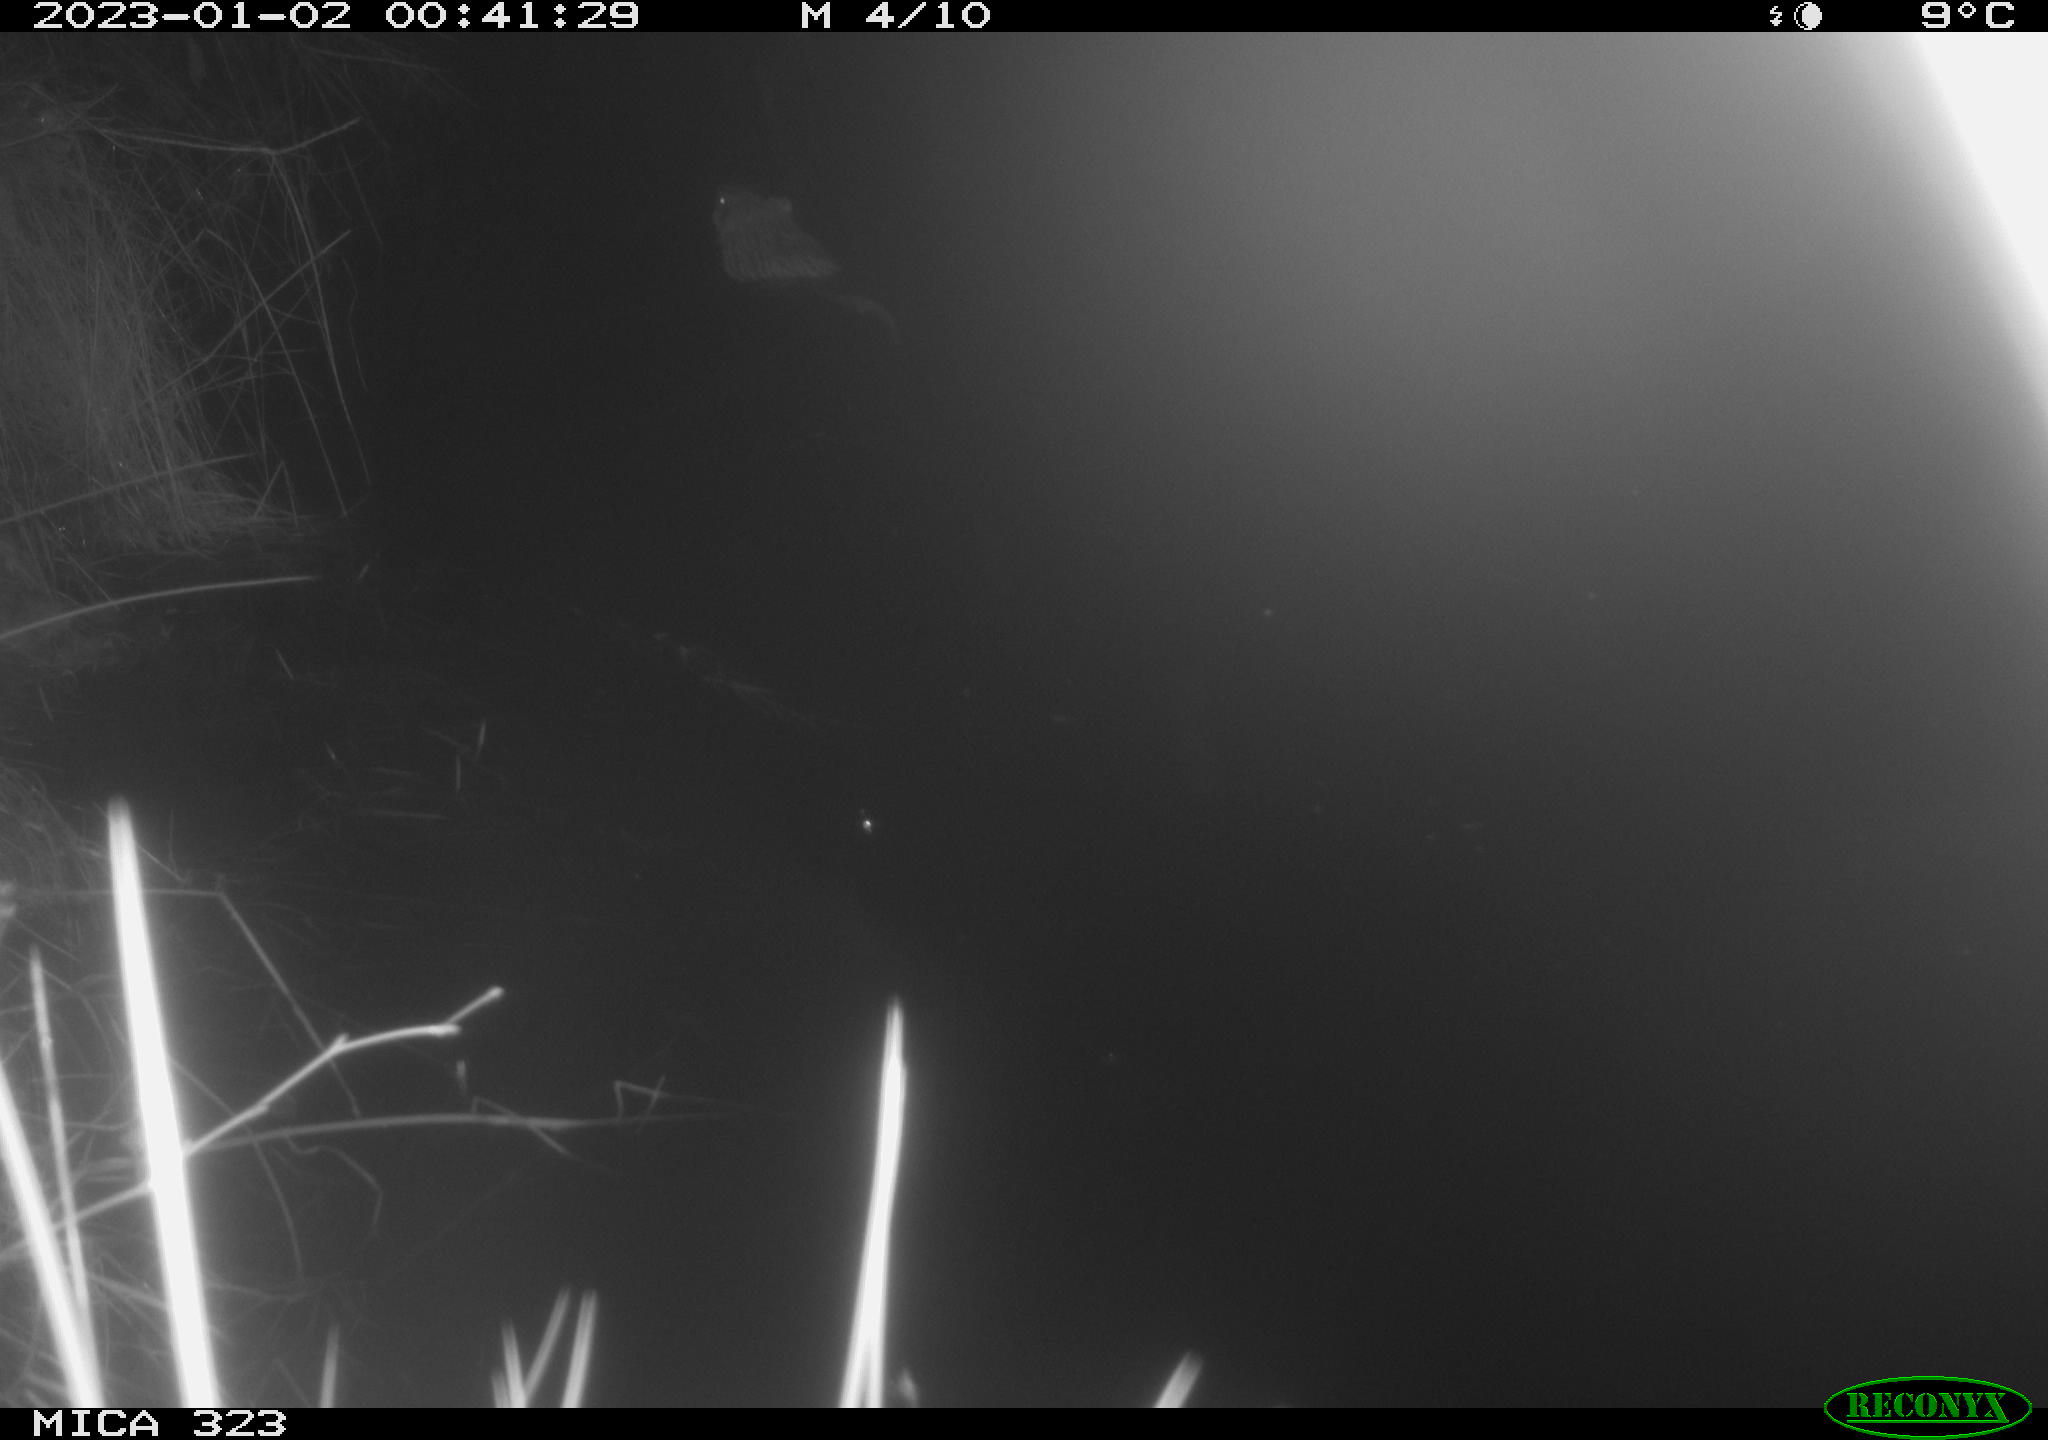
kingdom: Animalia
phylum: Chordata
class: Mammalia
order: Rodentia
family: Cricetidae
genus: Ondatra
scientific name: Ondatra zibethicus
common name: Muskrat
